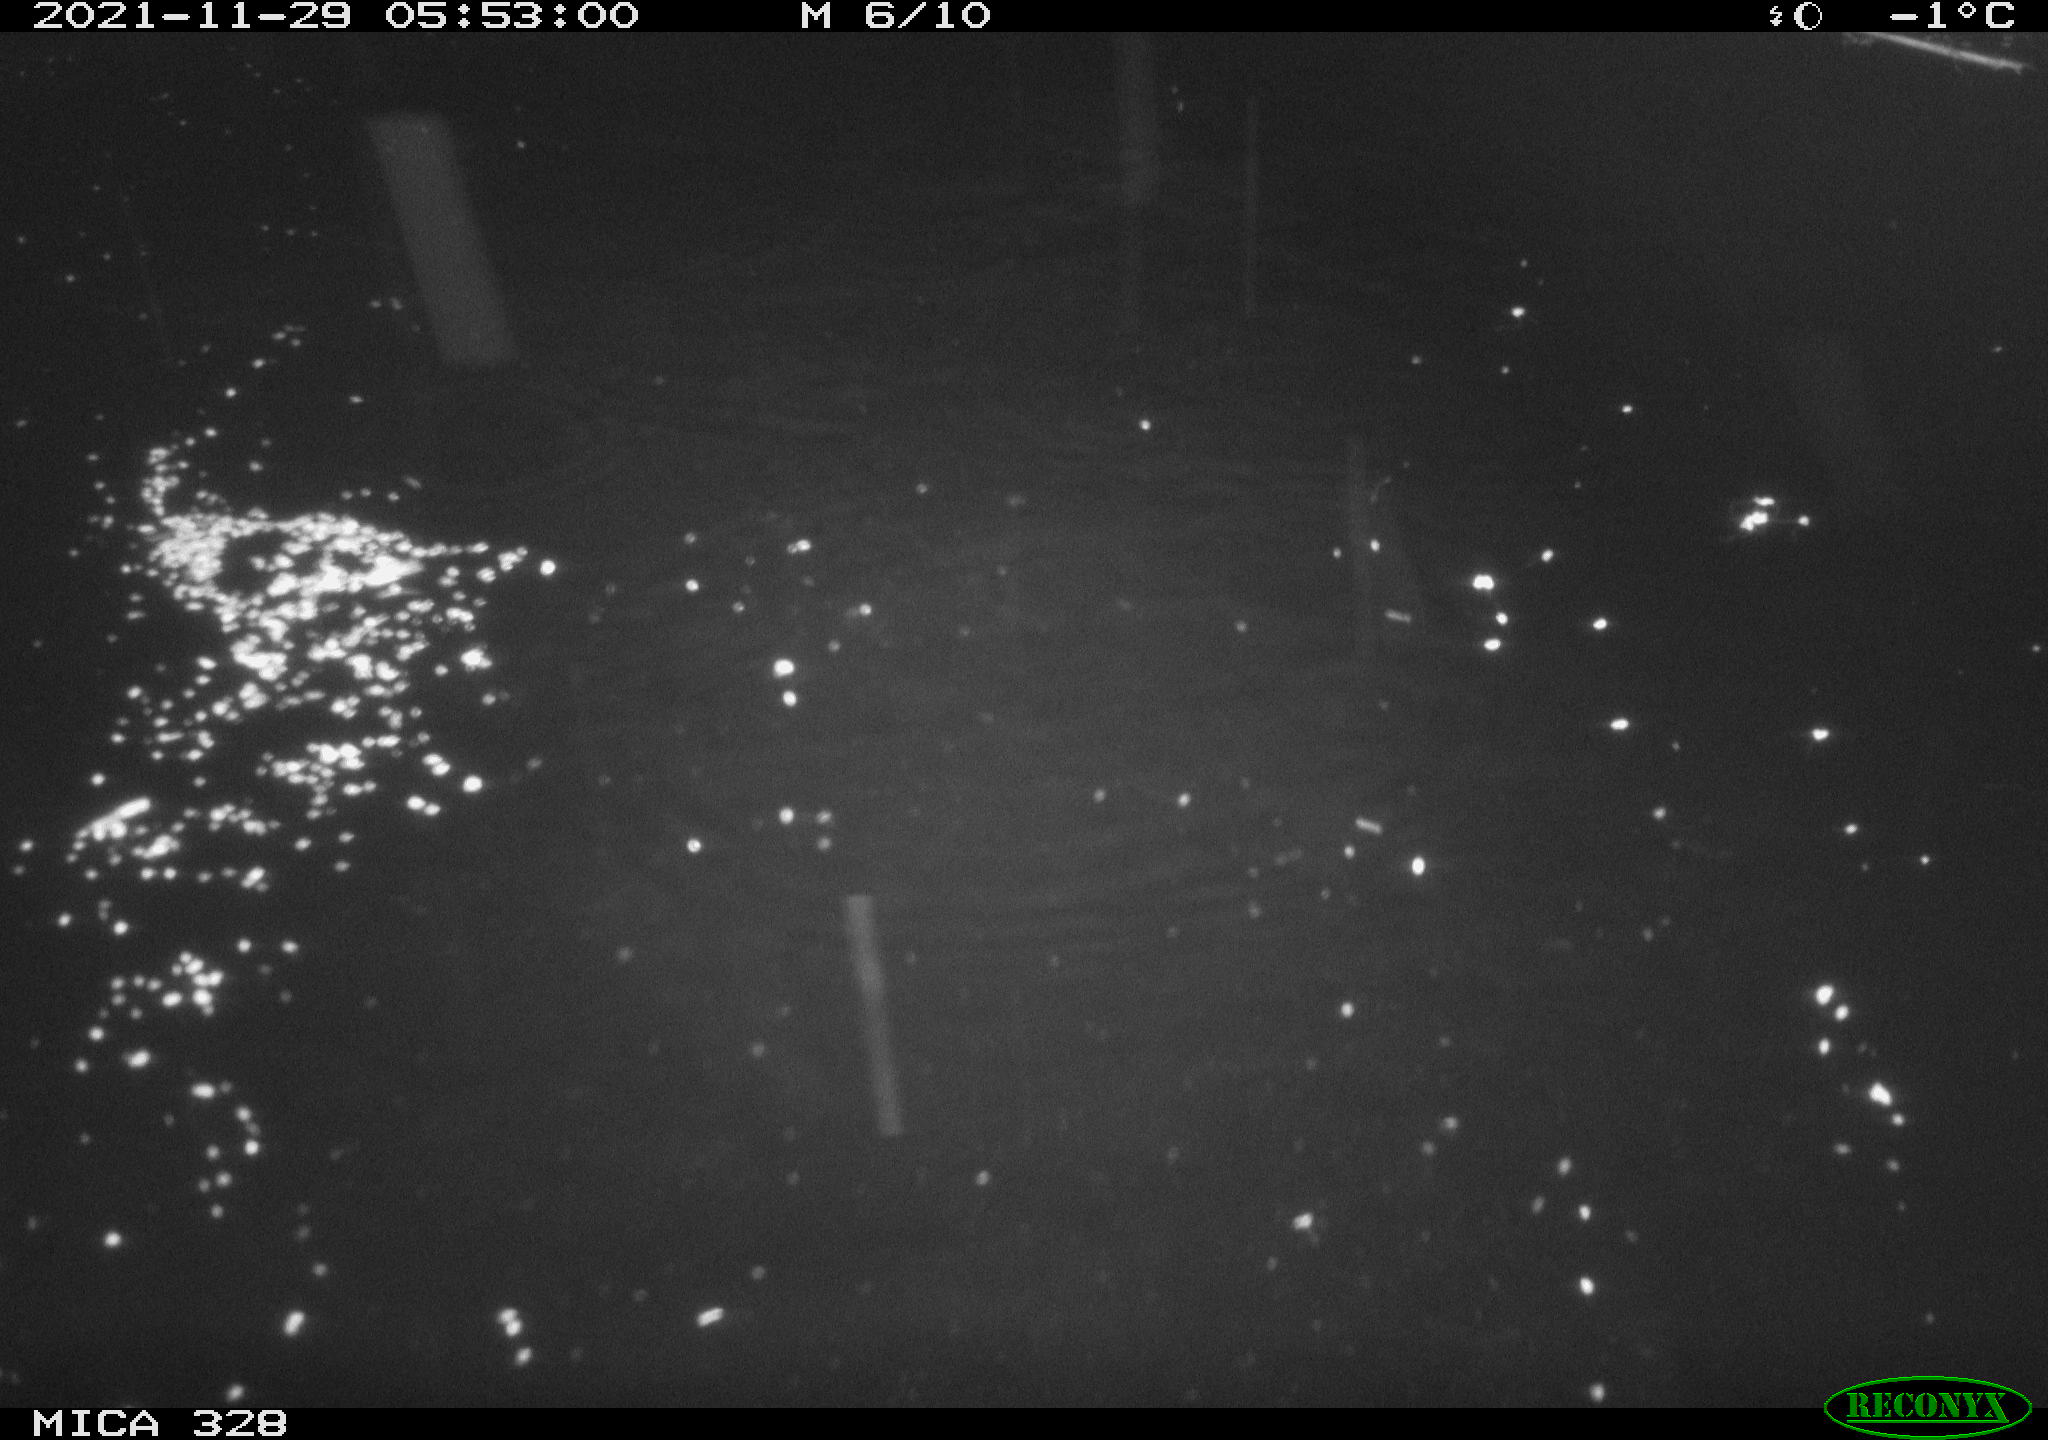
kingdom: Animalia
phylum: Chordata
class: Mammalia
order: Rodentia
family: Cricetidae
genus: Ondatra
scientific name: Ondatra zibethicus
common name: Muskrat
